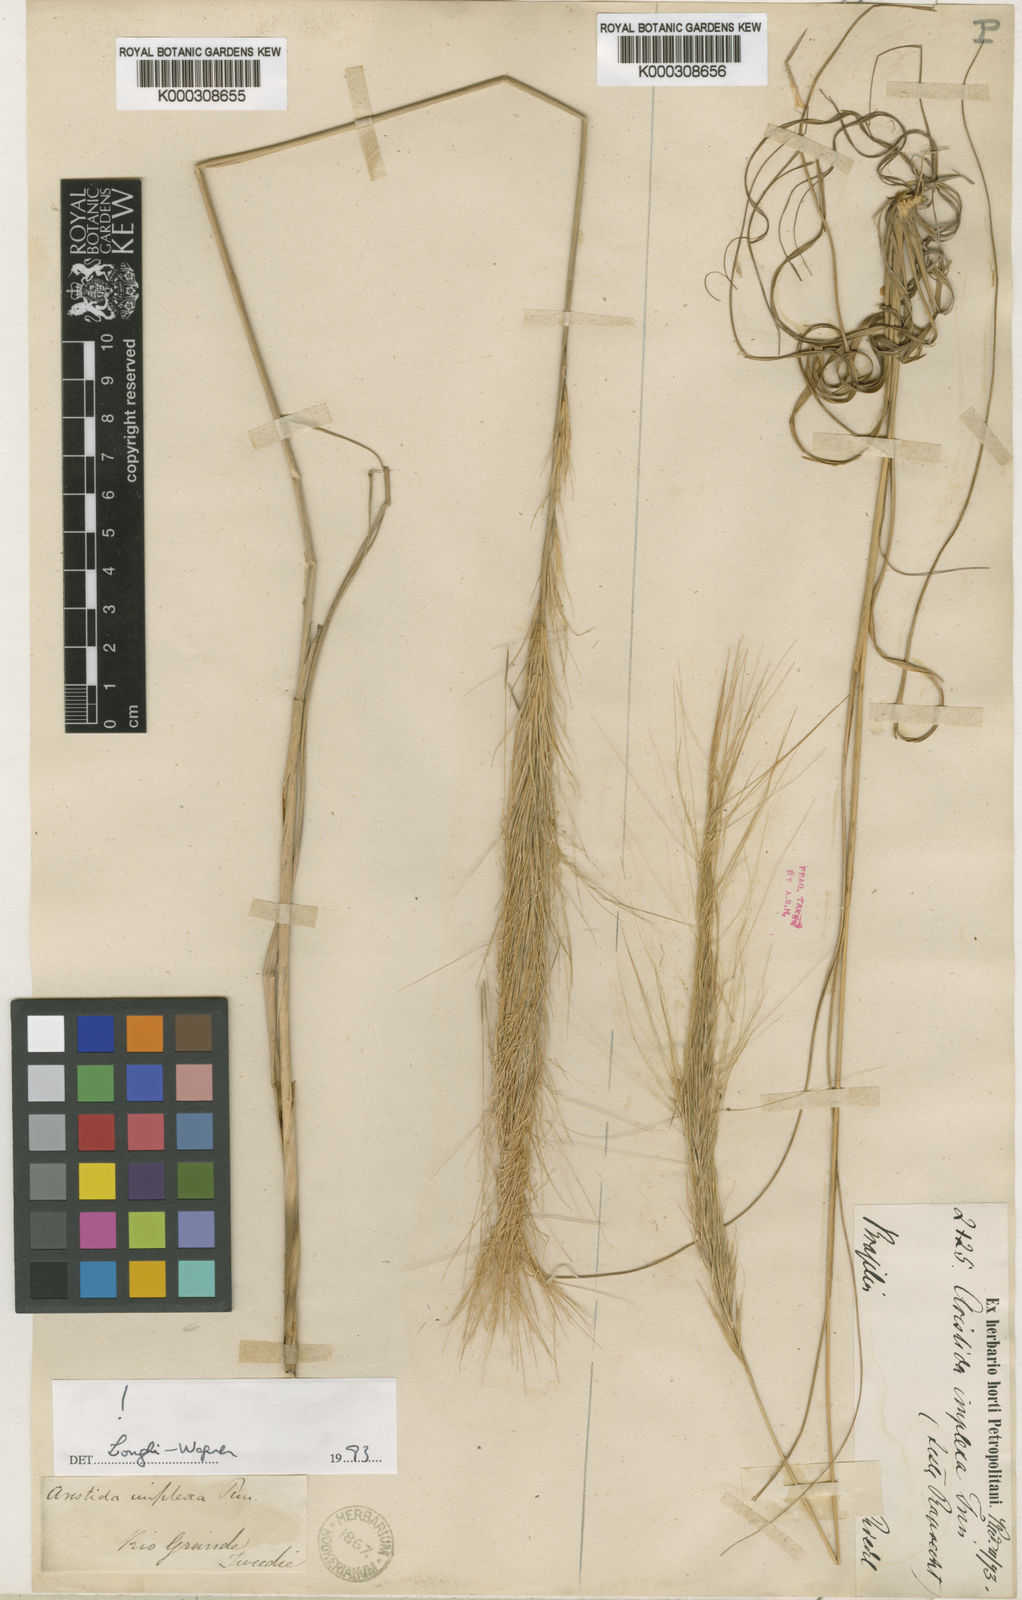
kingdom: Plantae
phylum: Tracheophyta
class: Liliopsida
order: Poales
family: Poaceae
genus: Aristida
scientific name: Aristida megapotamica
